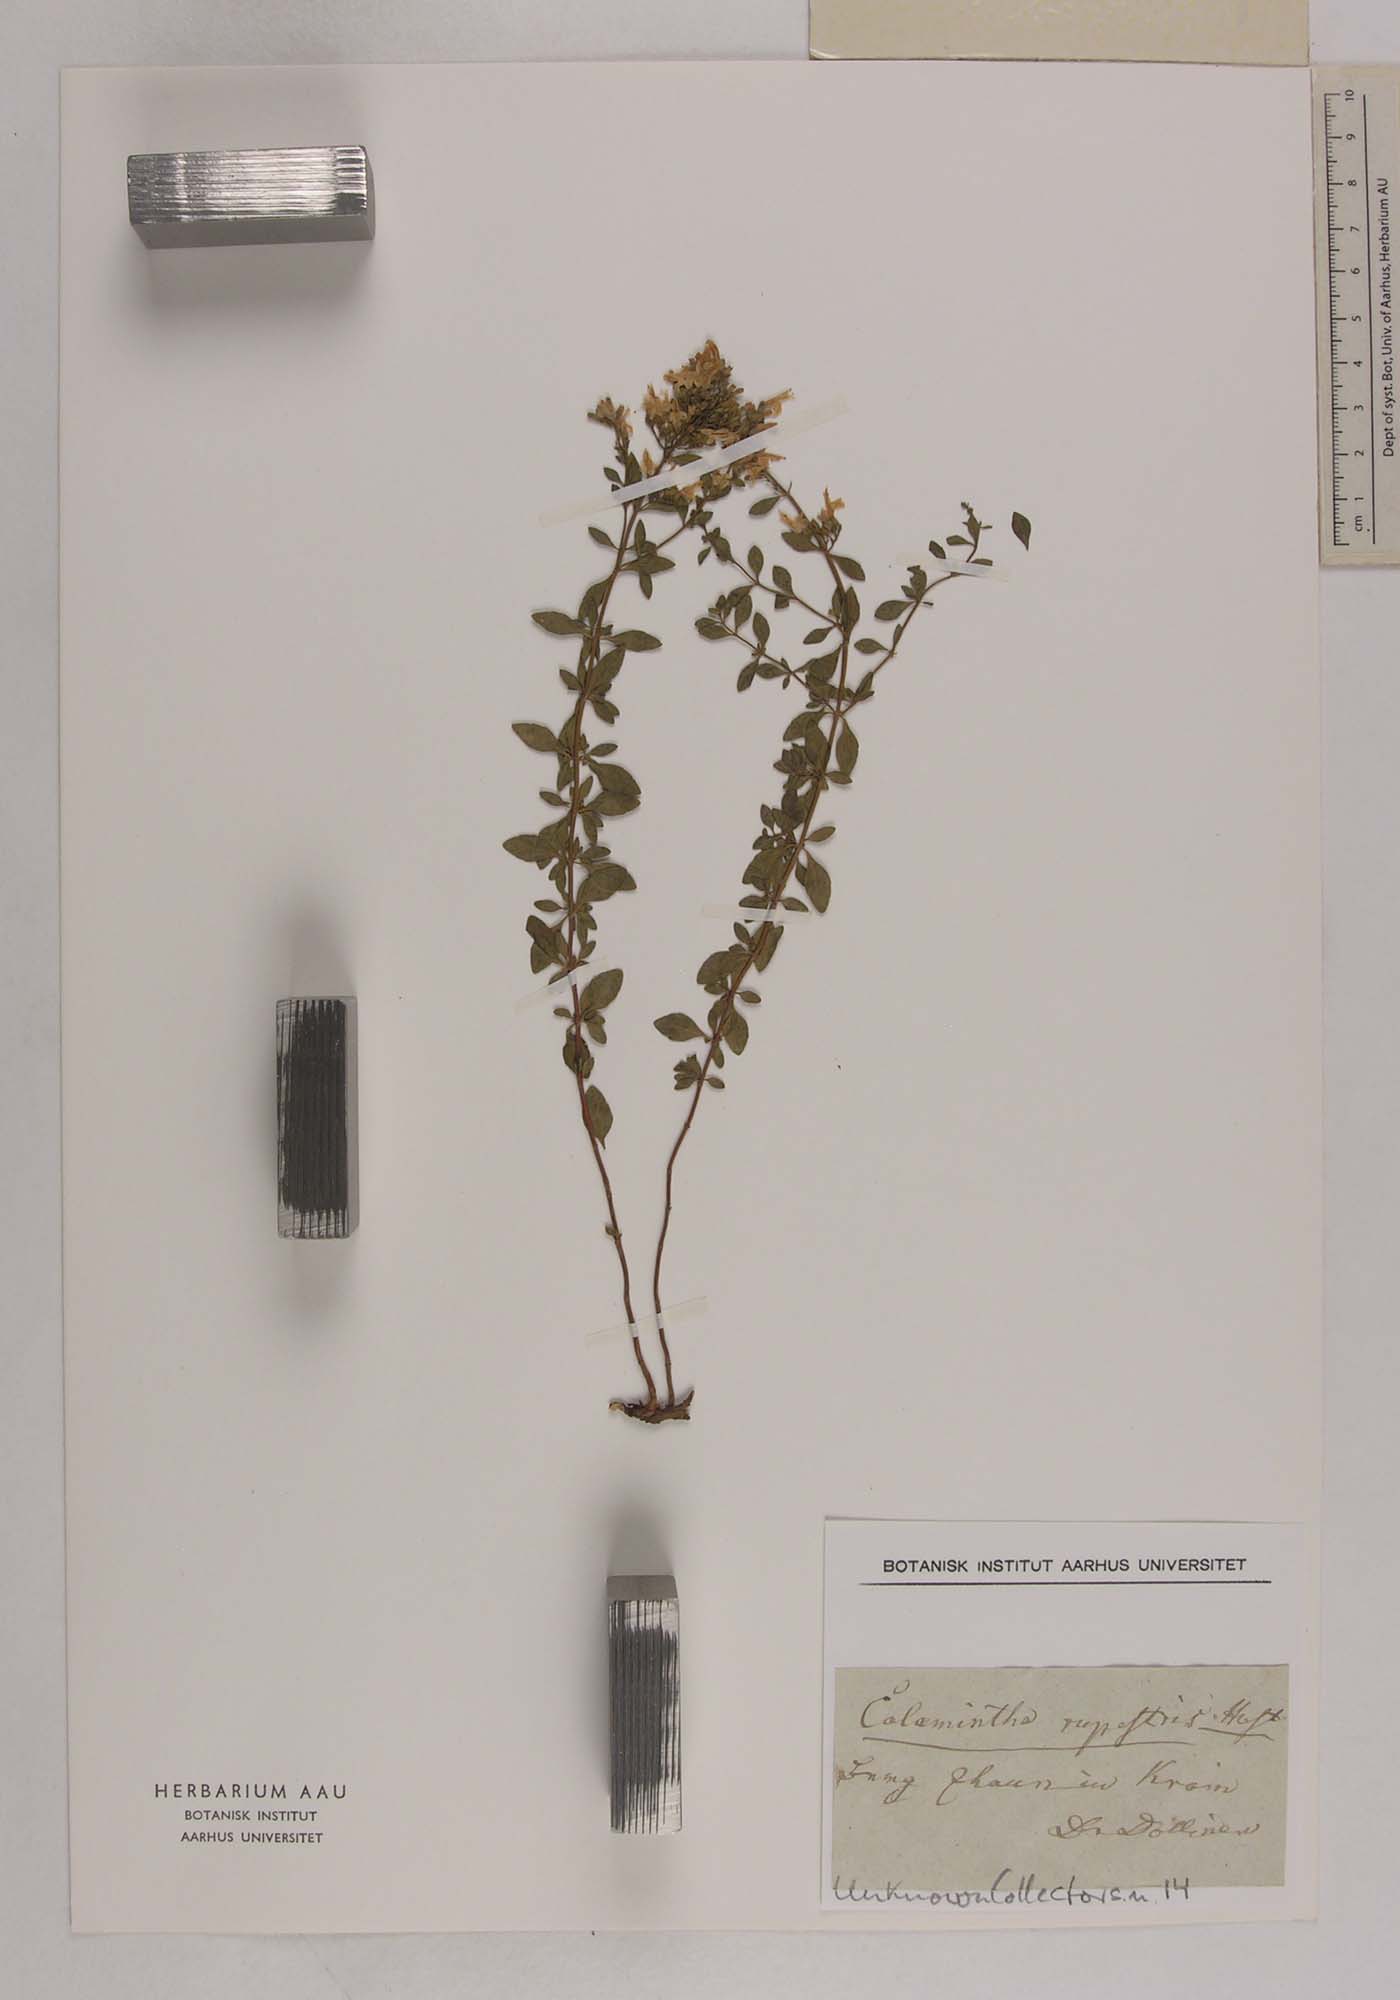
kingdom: Plantae
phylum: Tracheophyta
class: Magnoliopsida
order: Lamiales
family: Lamiaceae
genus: Clinopodium
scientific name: Clinopodium album
